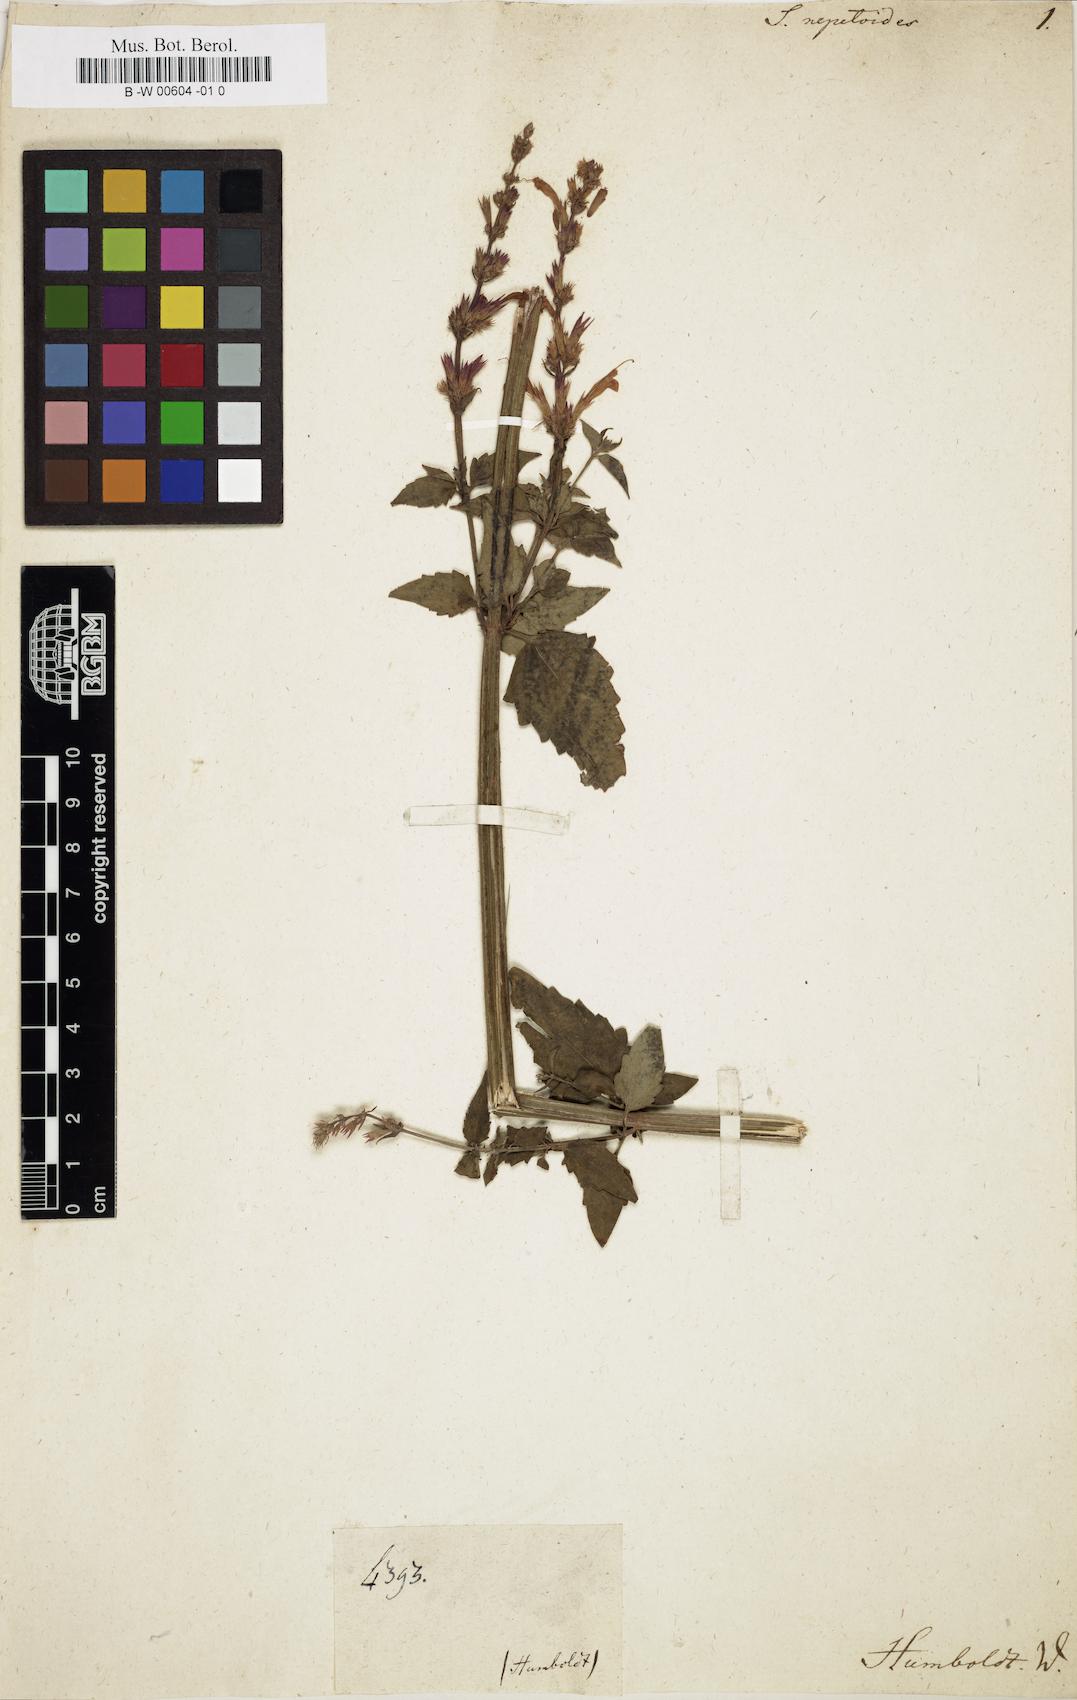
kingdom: Plantae
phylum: Tracheophyta
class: Magnoliopsida
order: Lamiales
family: Lamiaceae
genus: Salvia
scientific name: Salvia circinnata
